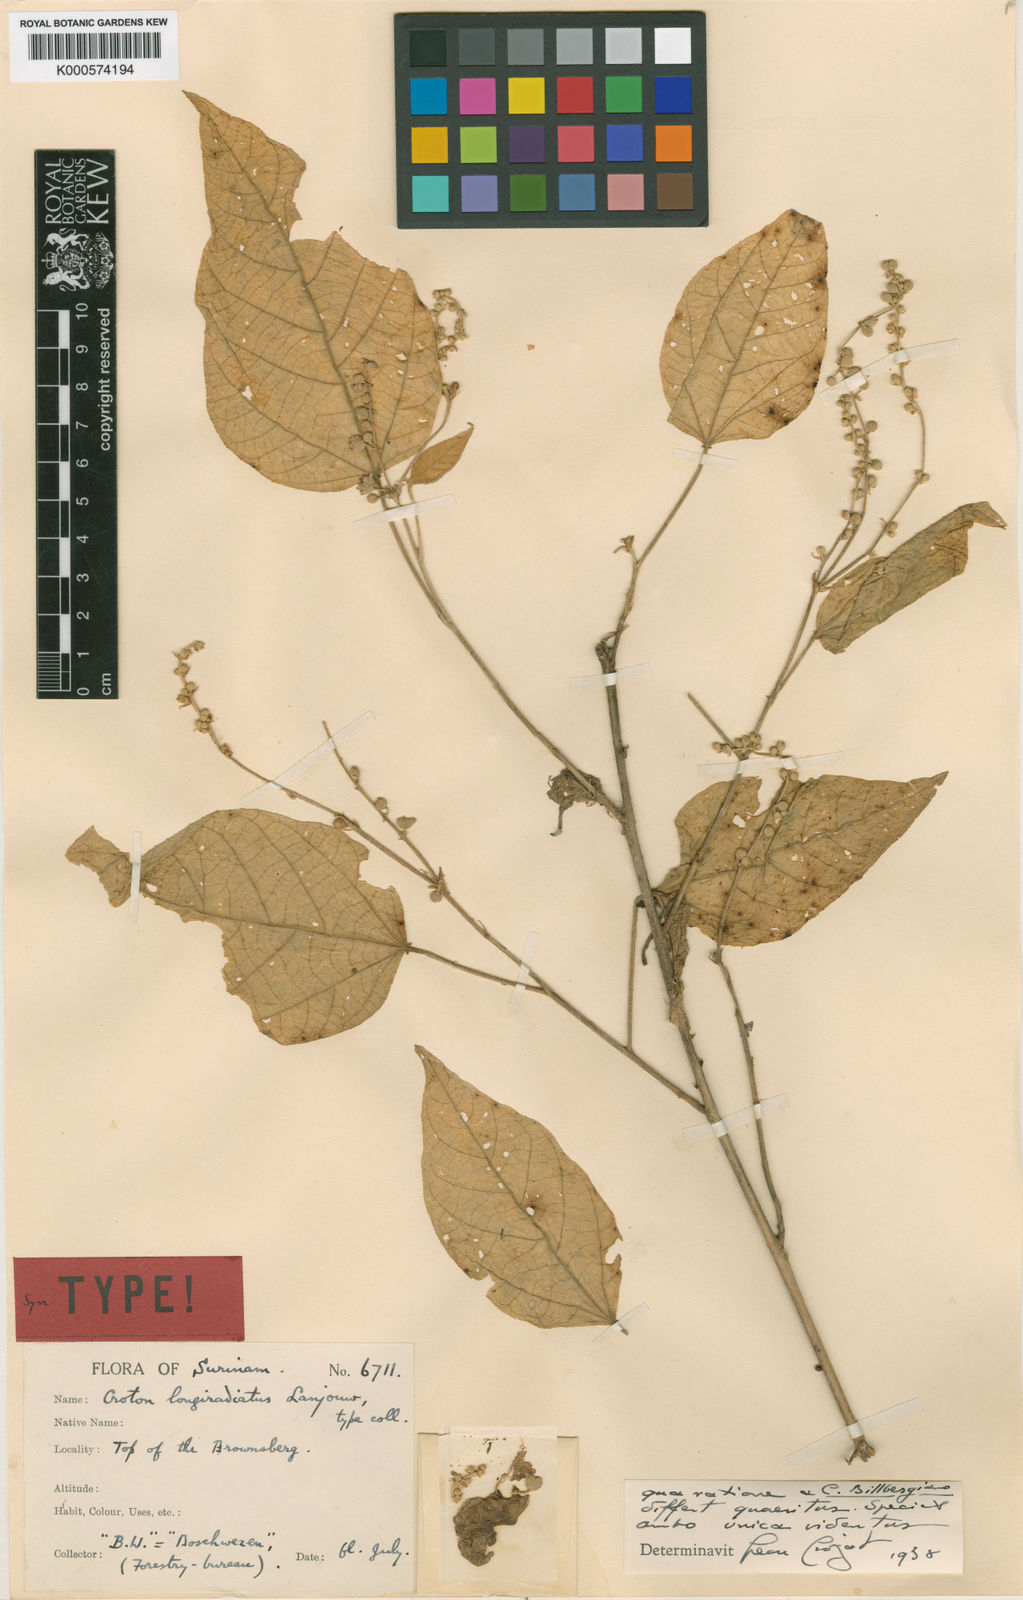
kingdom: Plantae
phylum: Tracheophyta
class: Magnoliopsida
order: Malpighiales
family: Euphorbiaceae
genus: Croton
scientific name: Croton hoffmannii
